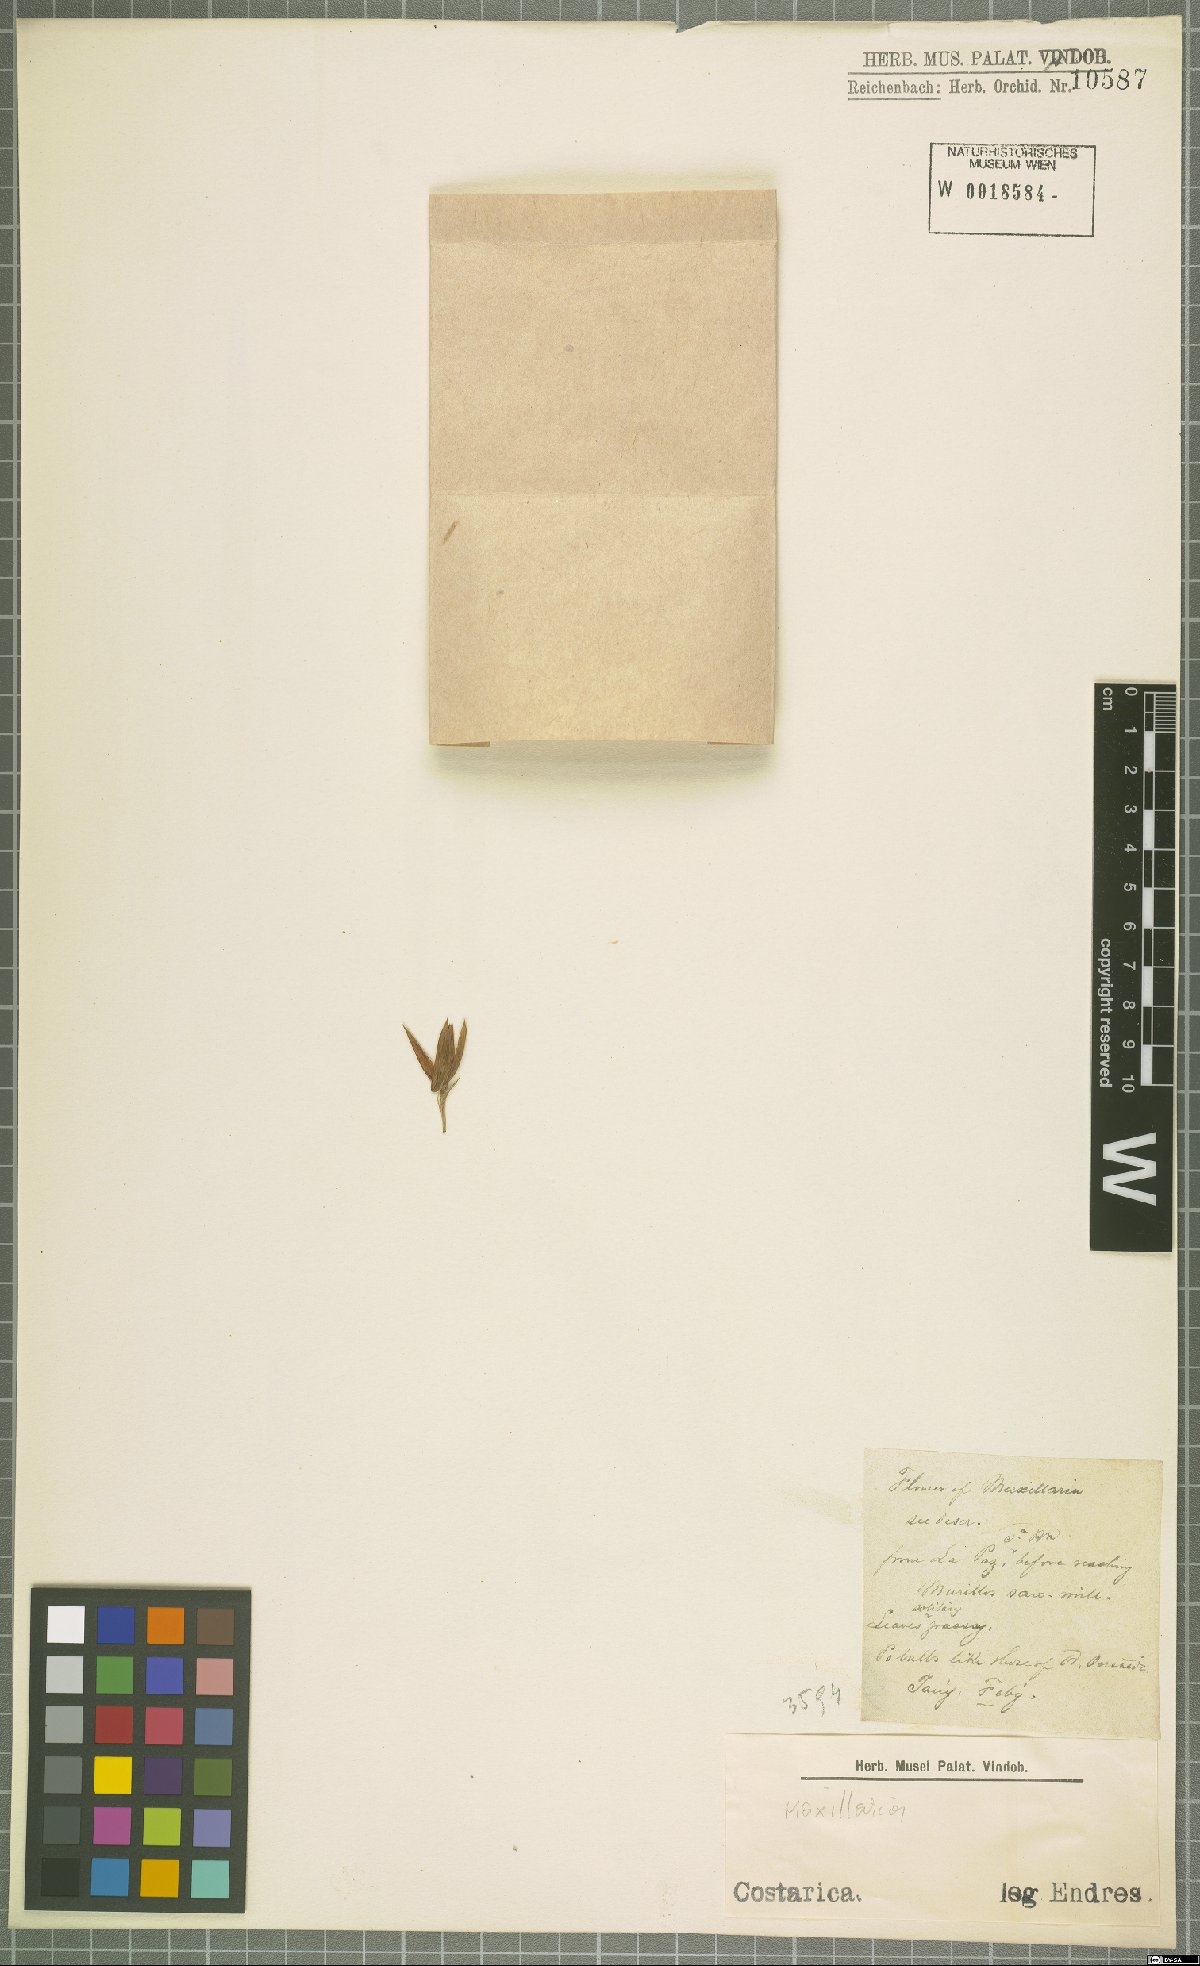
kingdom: Plantae
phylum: Tracheophyta
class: Liliopsida
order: Asparagales
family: Orchidaceae
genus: Maxillaria
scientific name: Maxillaria
